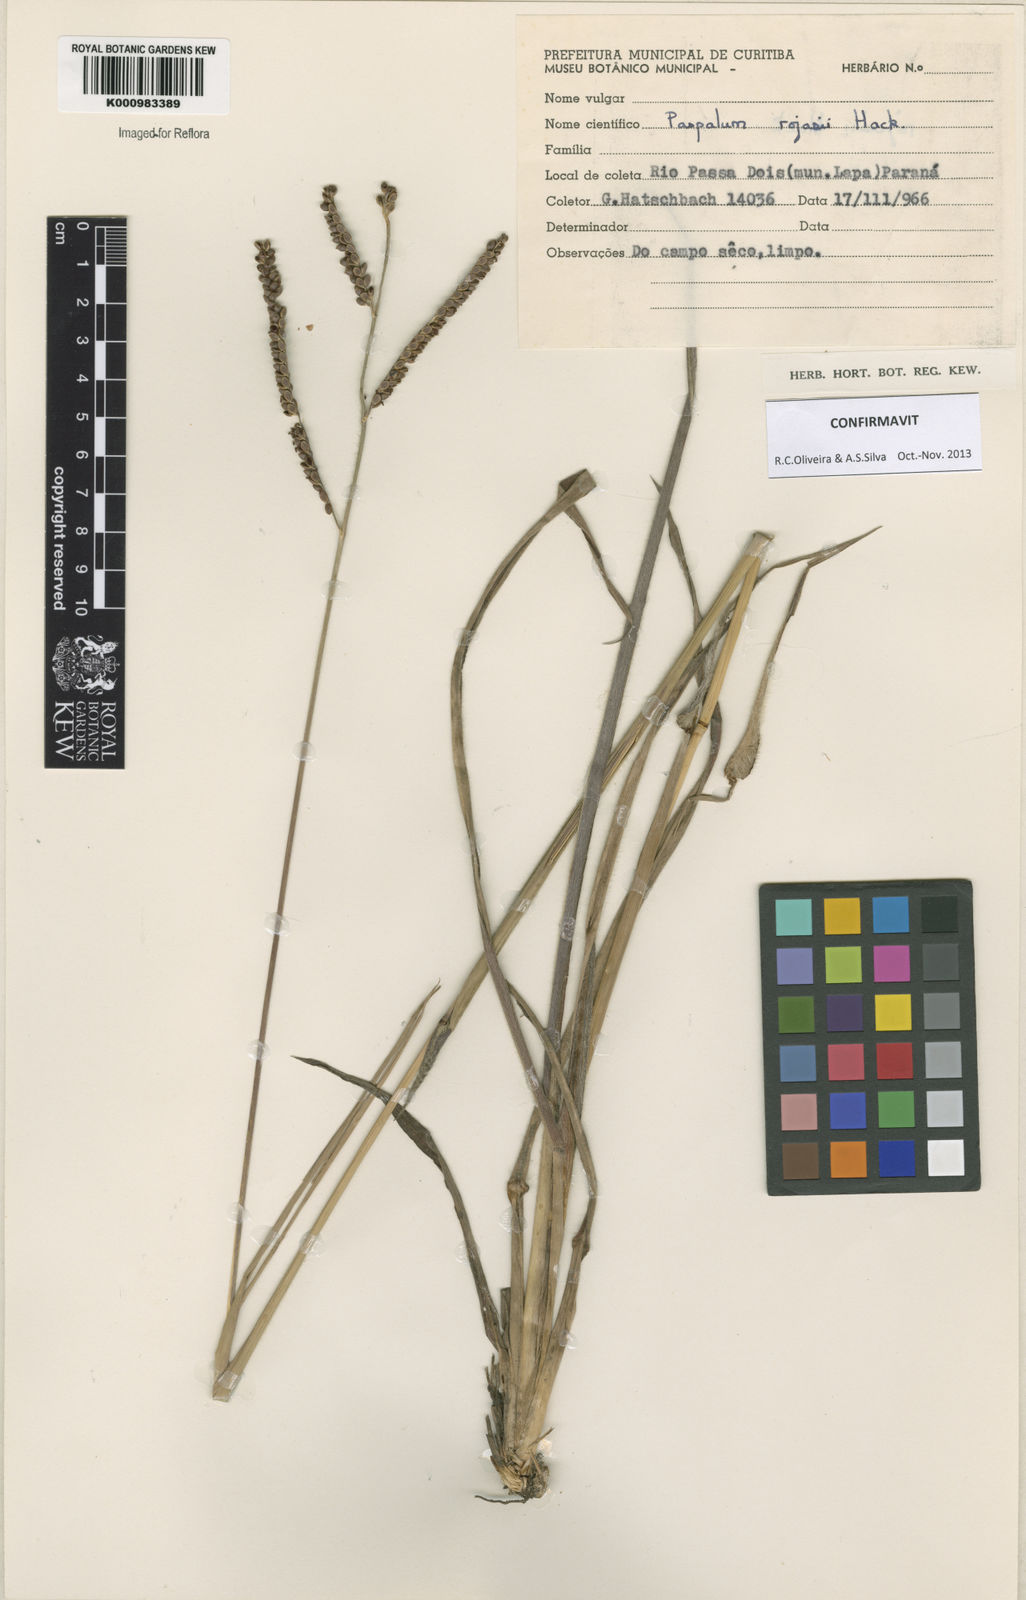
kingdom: Plantae
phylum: Tracheophyta
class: Liliopsida
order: Poales
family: Poaceae
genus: Paspalum
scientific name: Paspalum guenoarum
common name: Wintergreen paspalum
